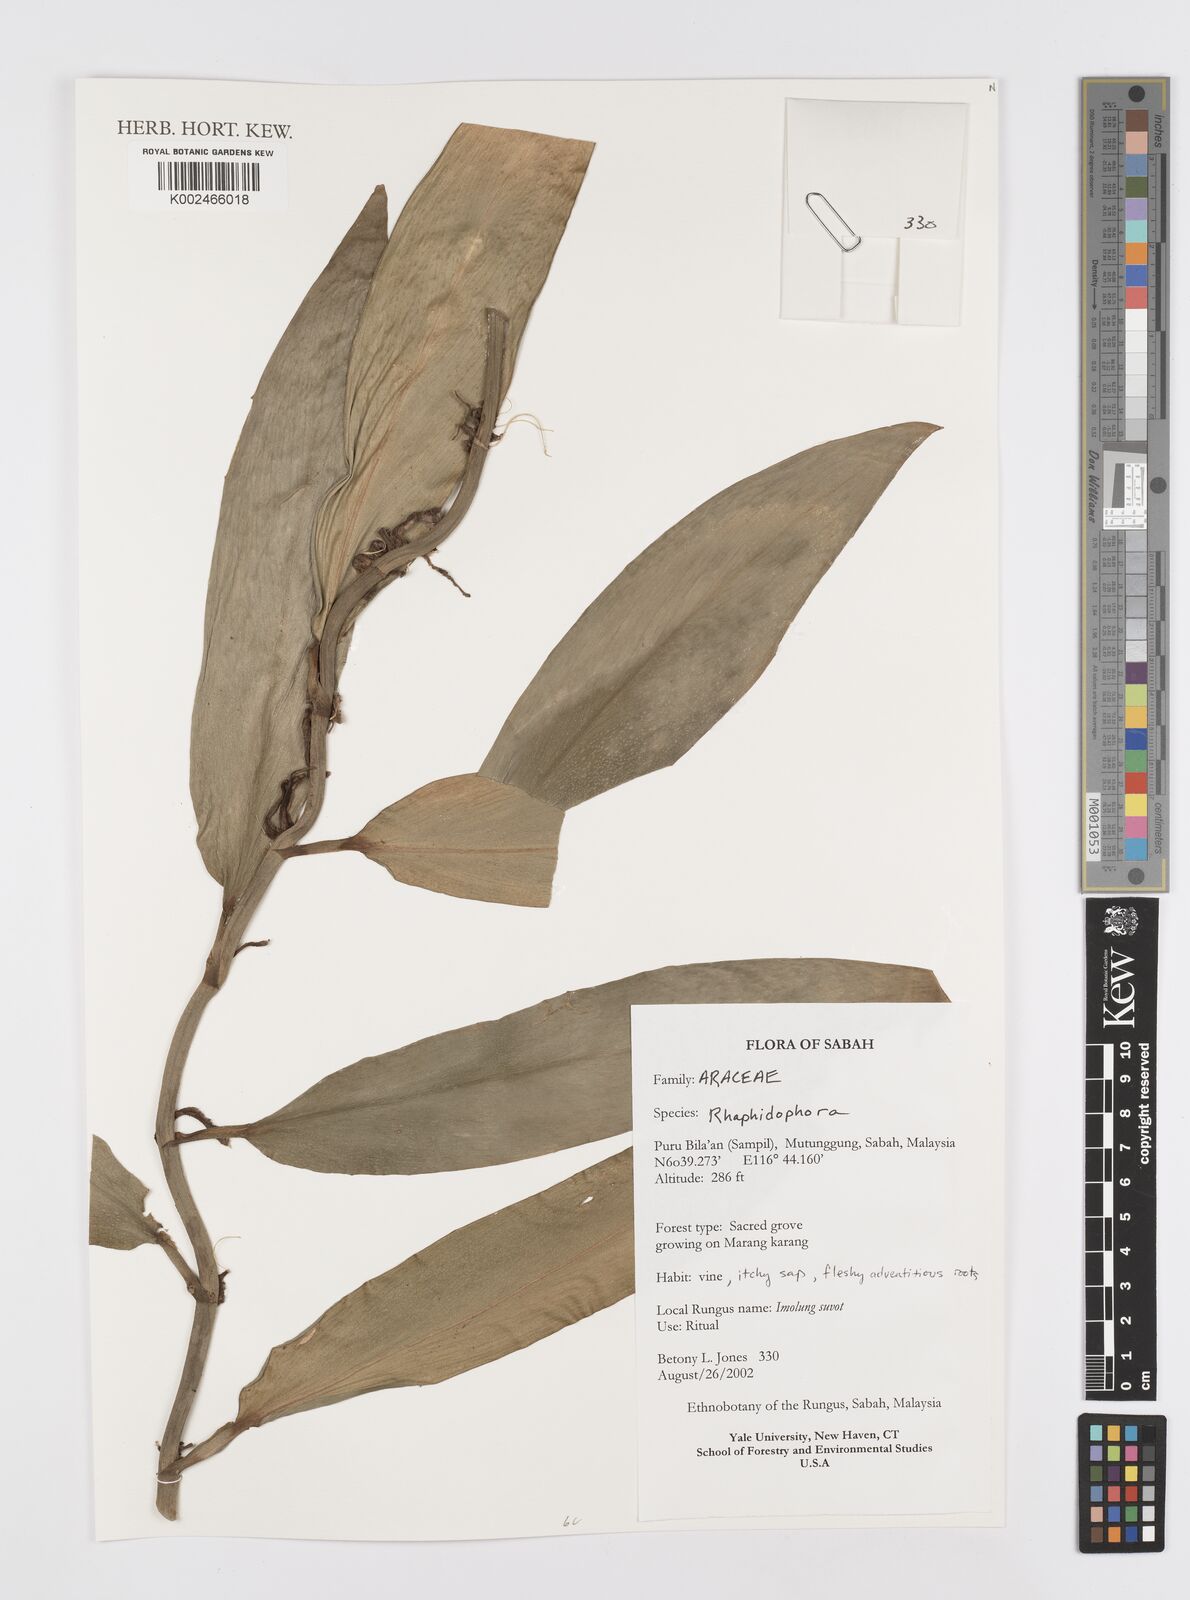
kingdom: Plantae
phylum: Tracheophyta
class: Liliopsida
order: Alismatales
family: Araceae
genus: Rhaphidophora
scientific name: Rhaphidophora
